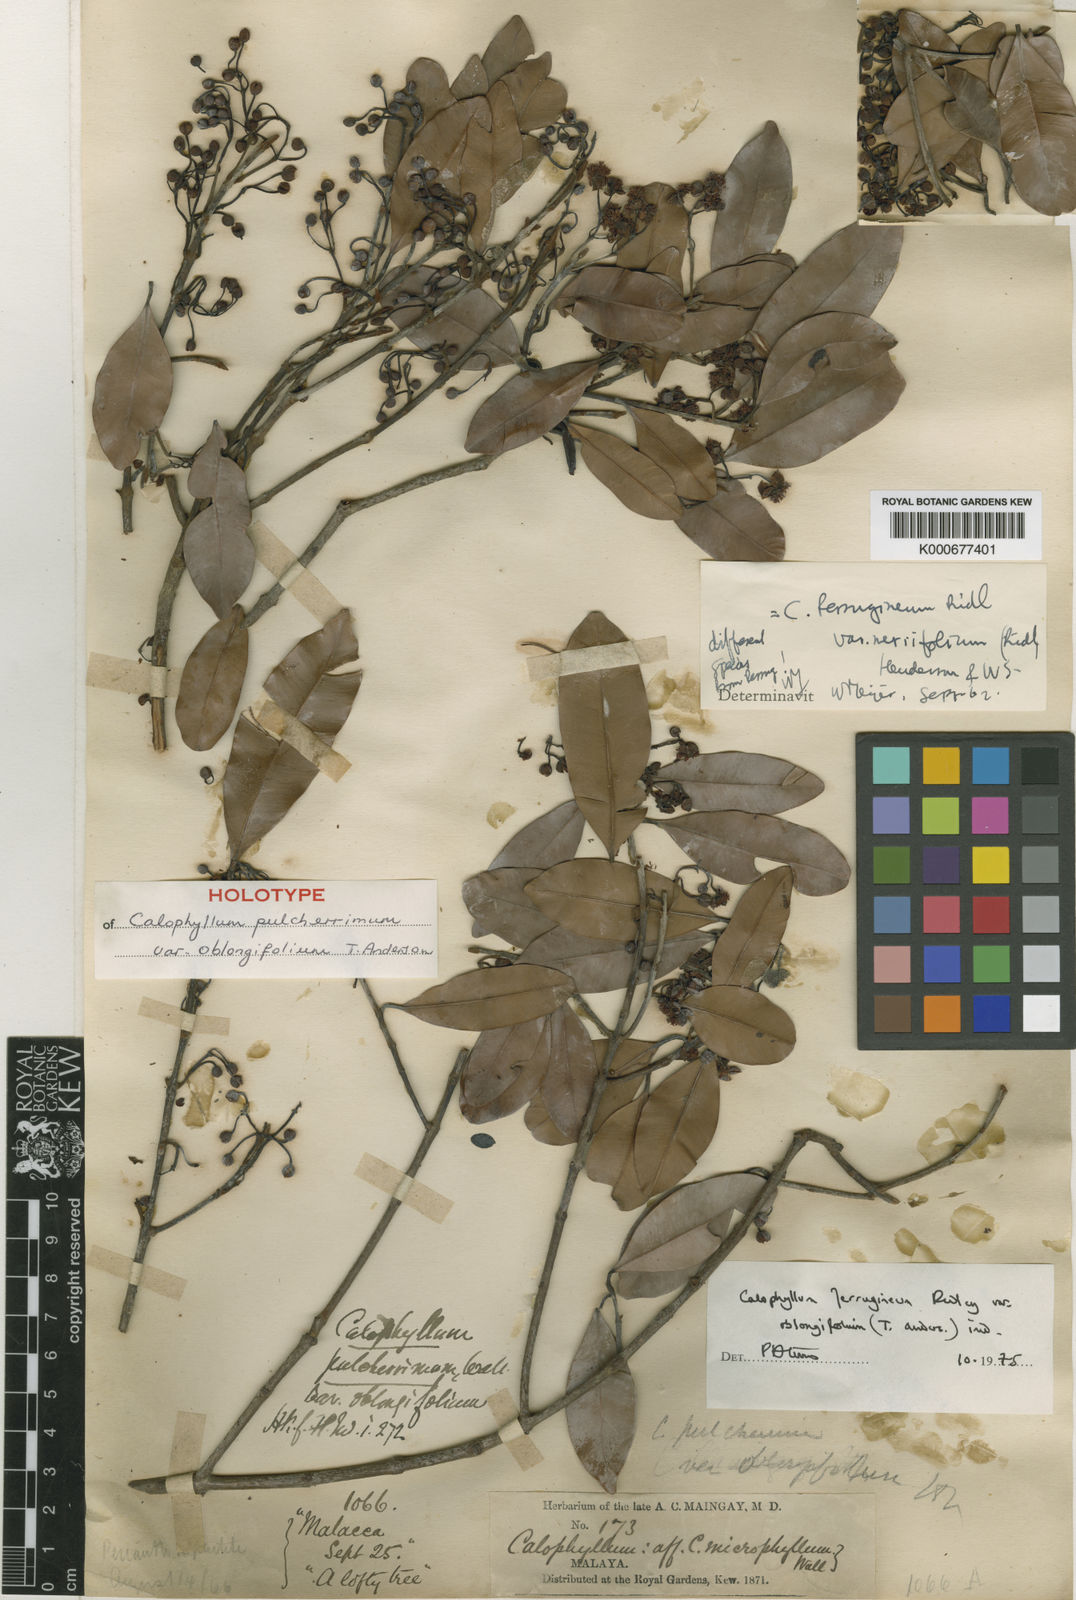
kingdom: Plantae
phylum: Tracheophyta
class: Magnoliopsida
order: Malpighiales
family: Calophyllaceae
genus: Calophyllum
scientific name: Calophyllum ferrugineum
